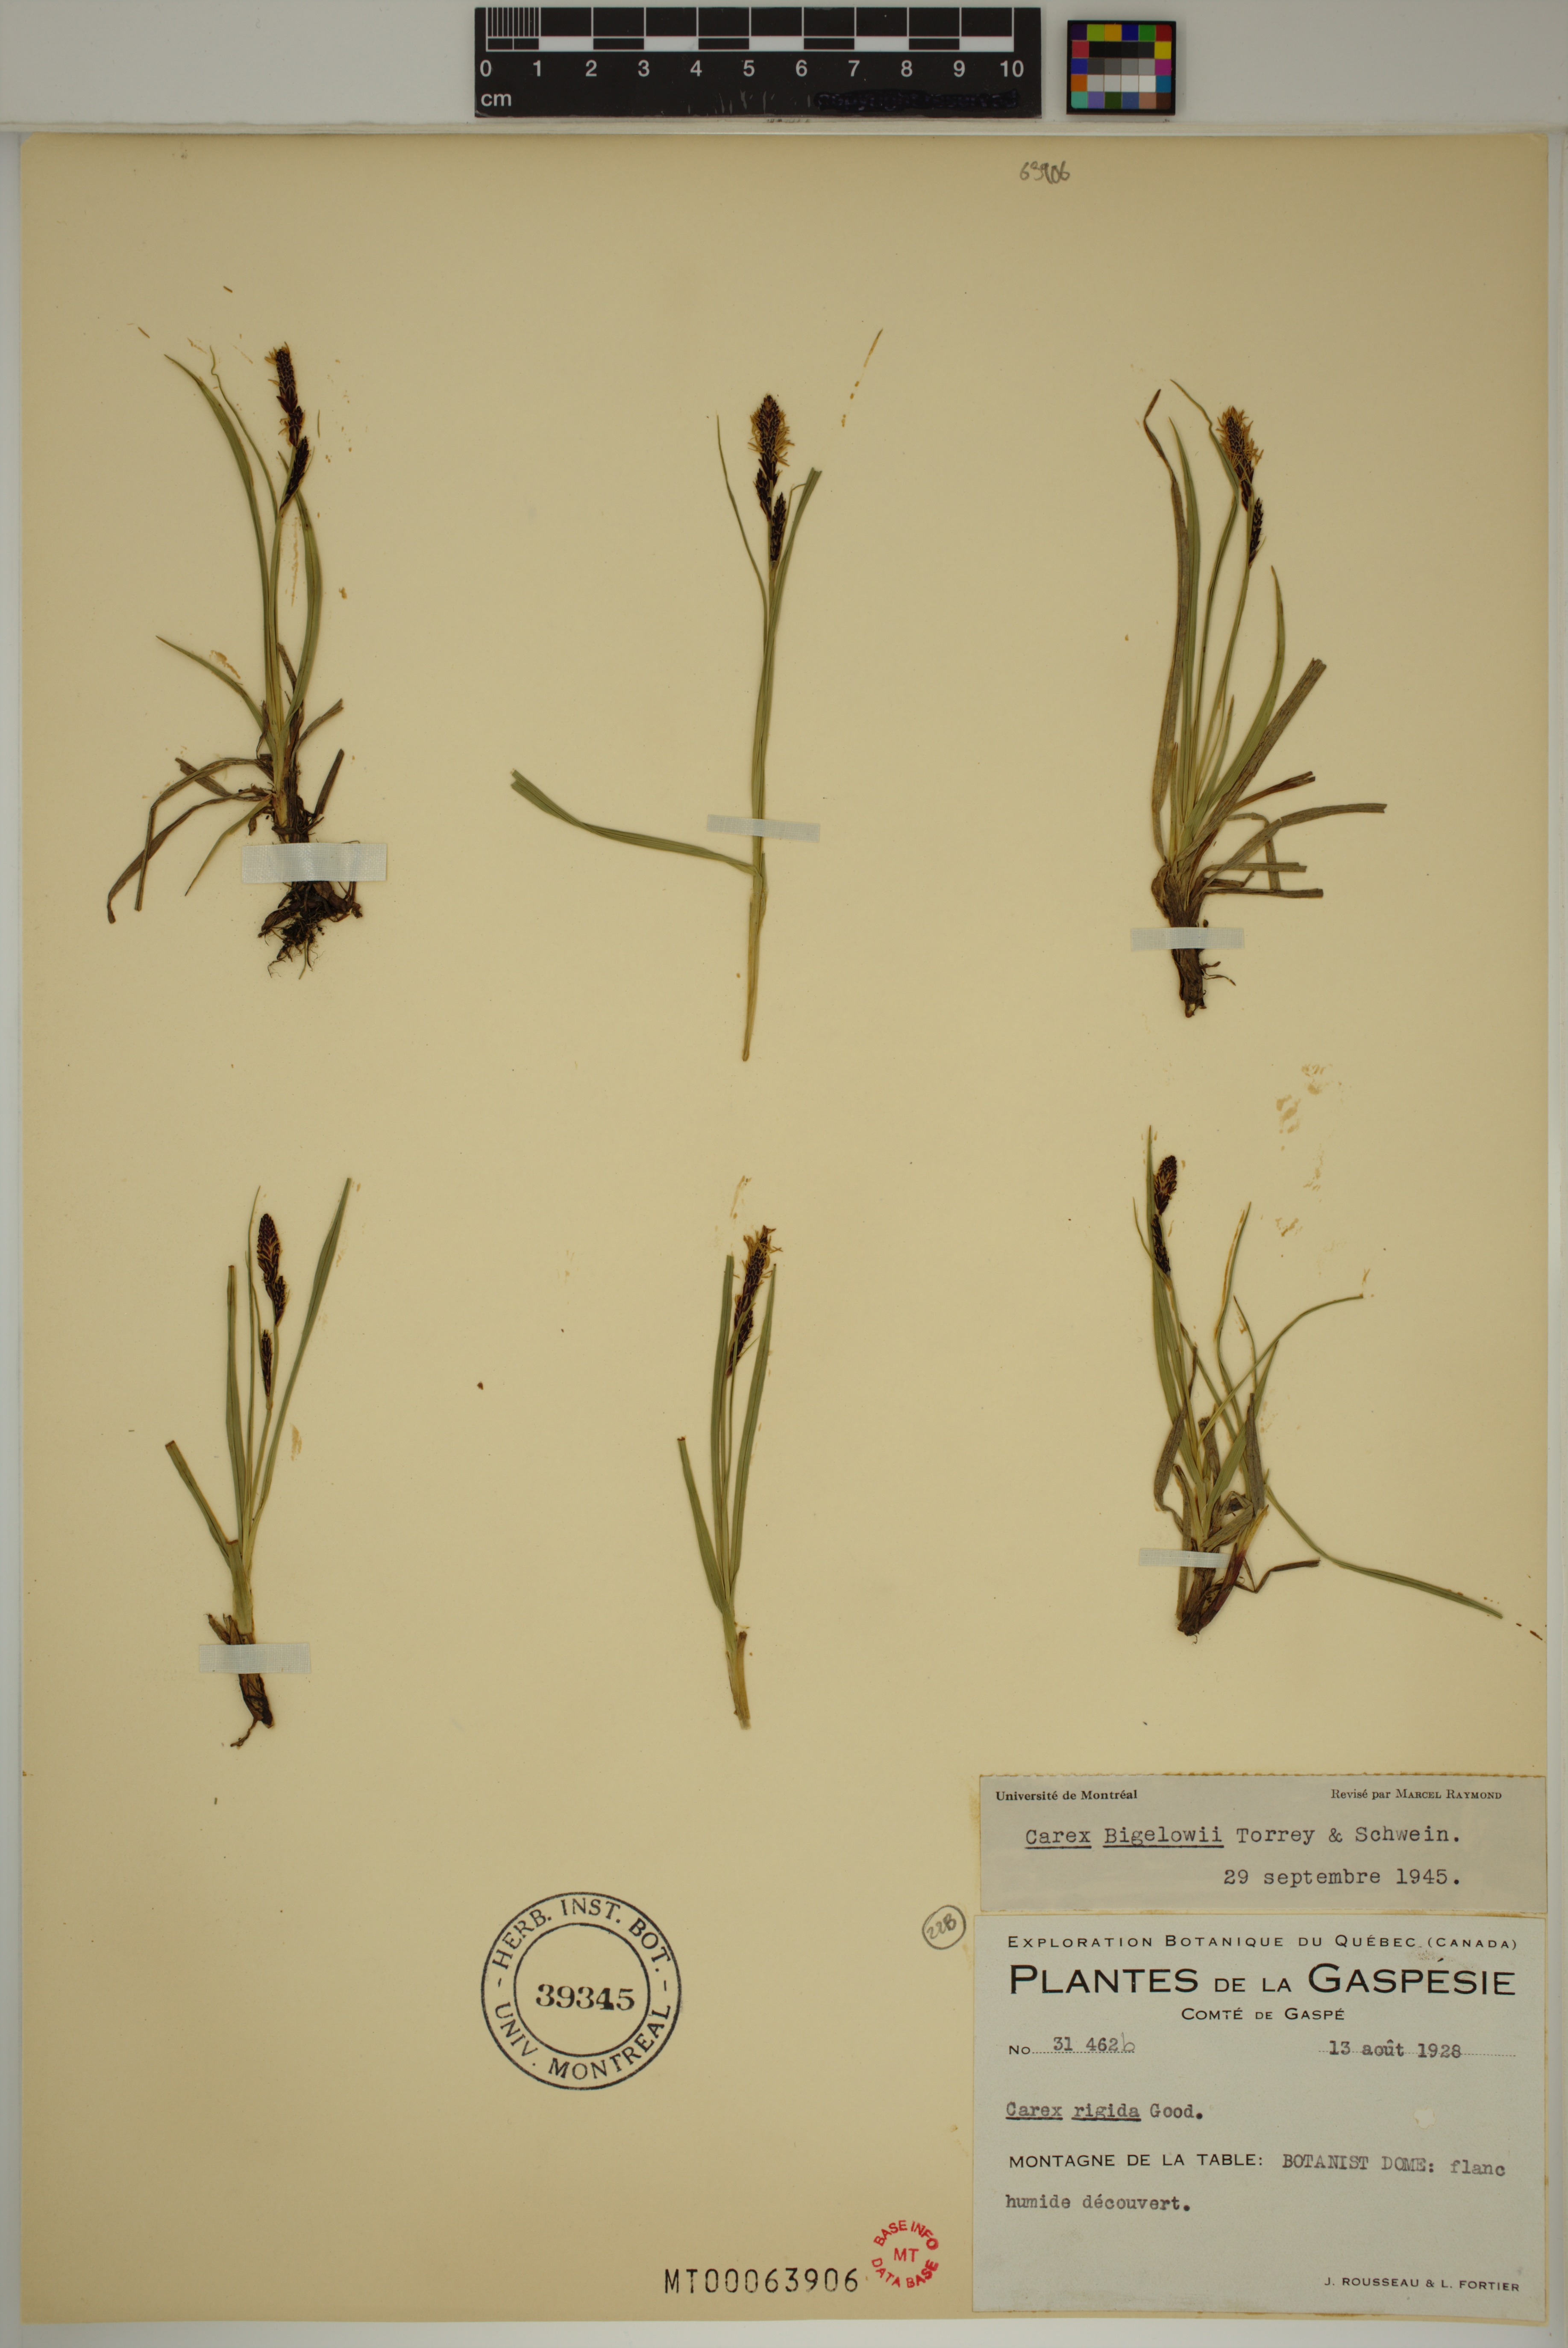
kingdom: Plantae
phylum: Tracheophyta
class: Liliopsida
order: Poales
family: Cyperaceae
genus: Carex
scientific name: Carex bigelowii
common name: Stiff sedge
